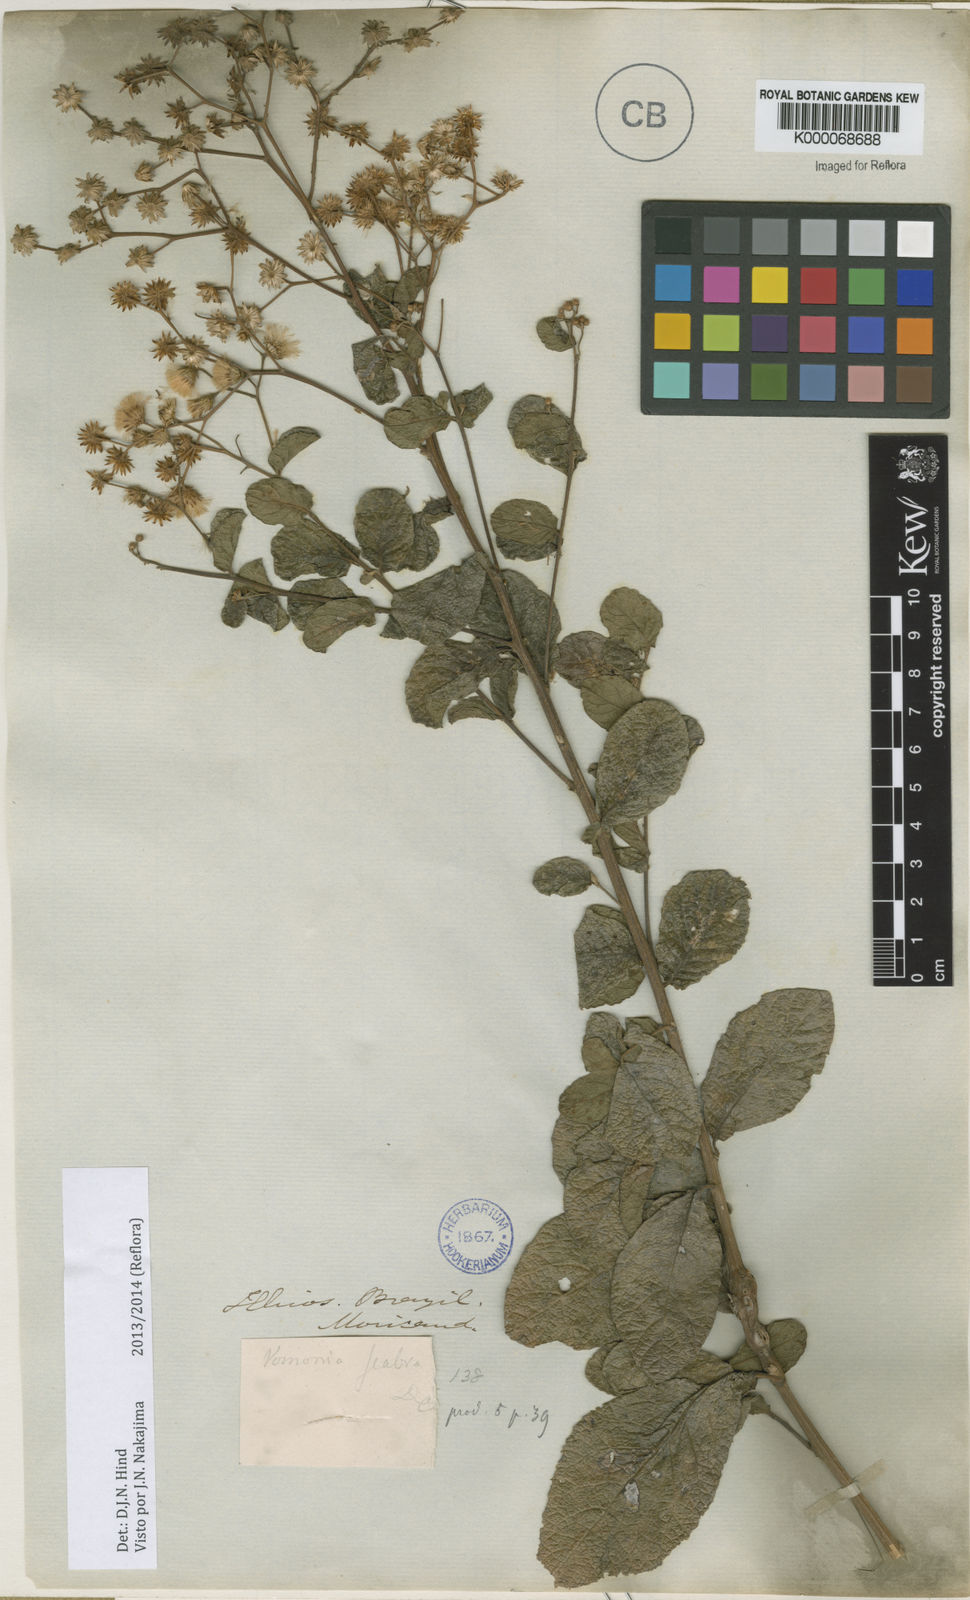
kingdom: Plantae
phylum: Tracheophyta
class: Magnoliopsida
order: Asterales
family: Asteraceae
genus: Vernonanthura
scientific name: Vernonanthura brasiliana
